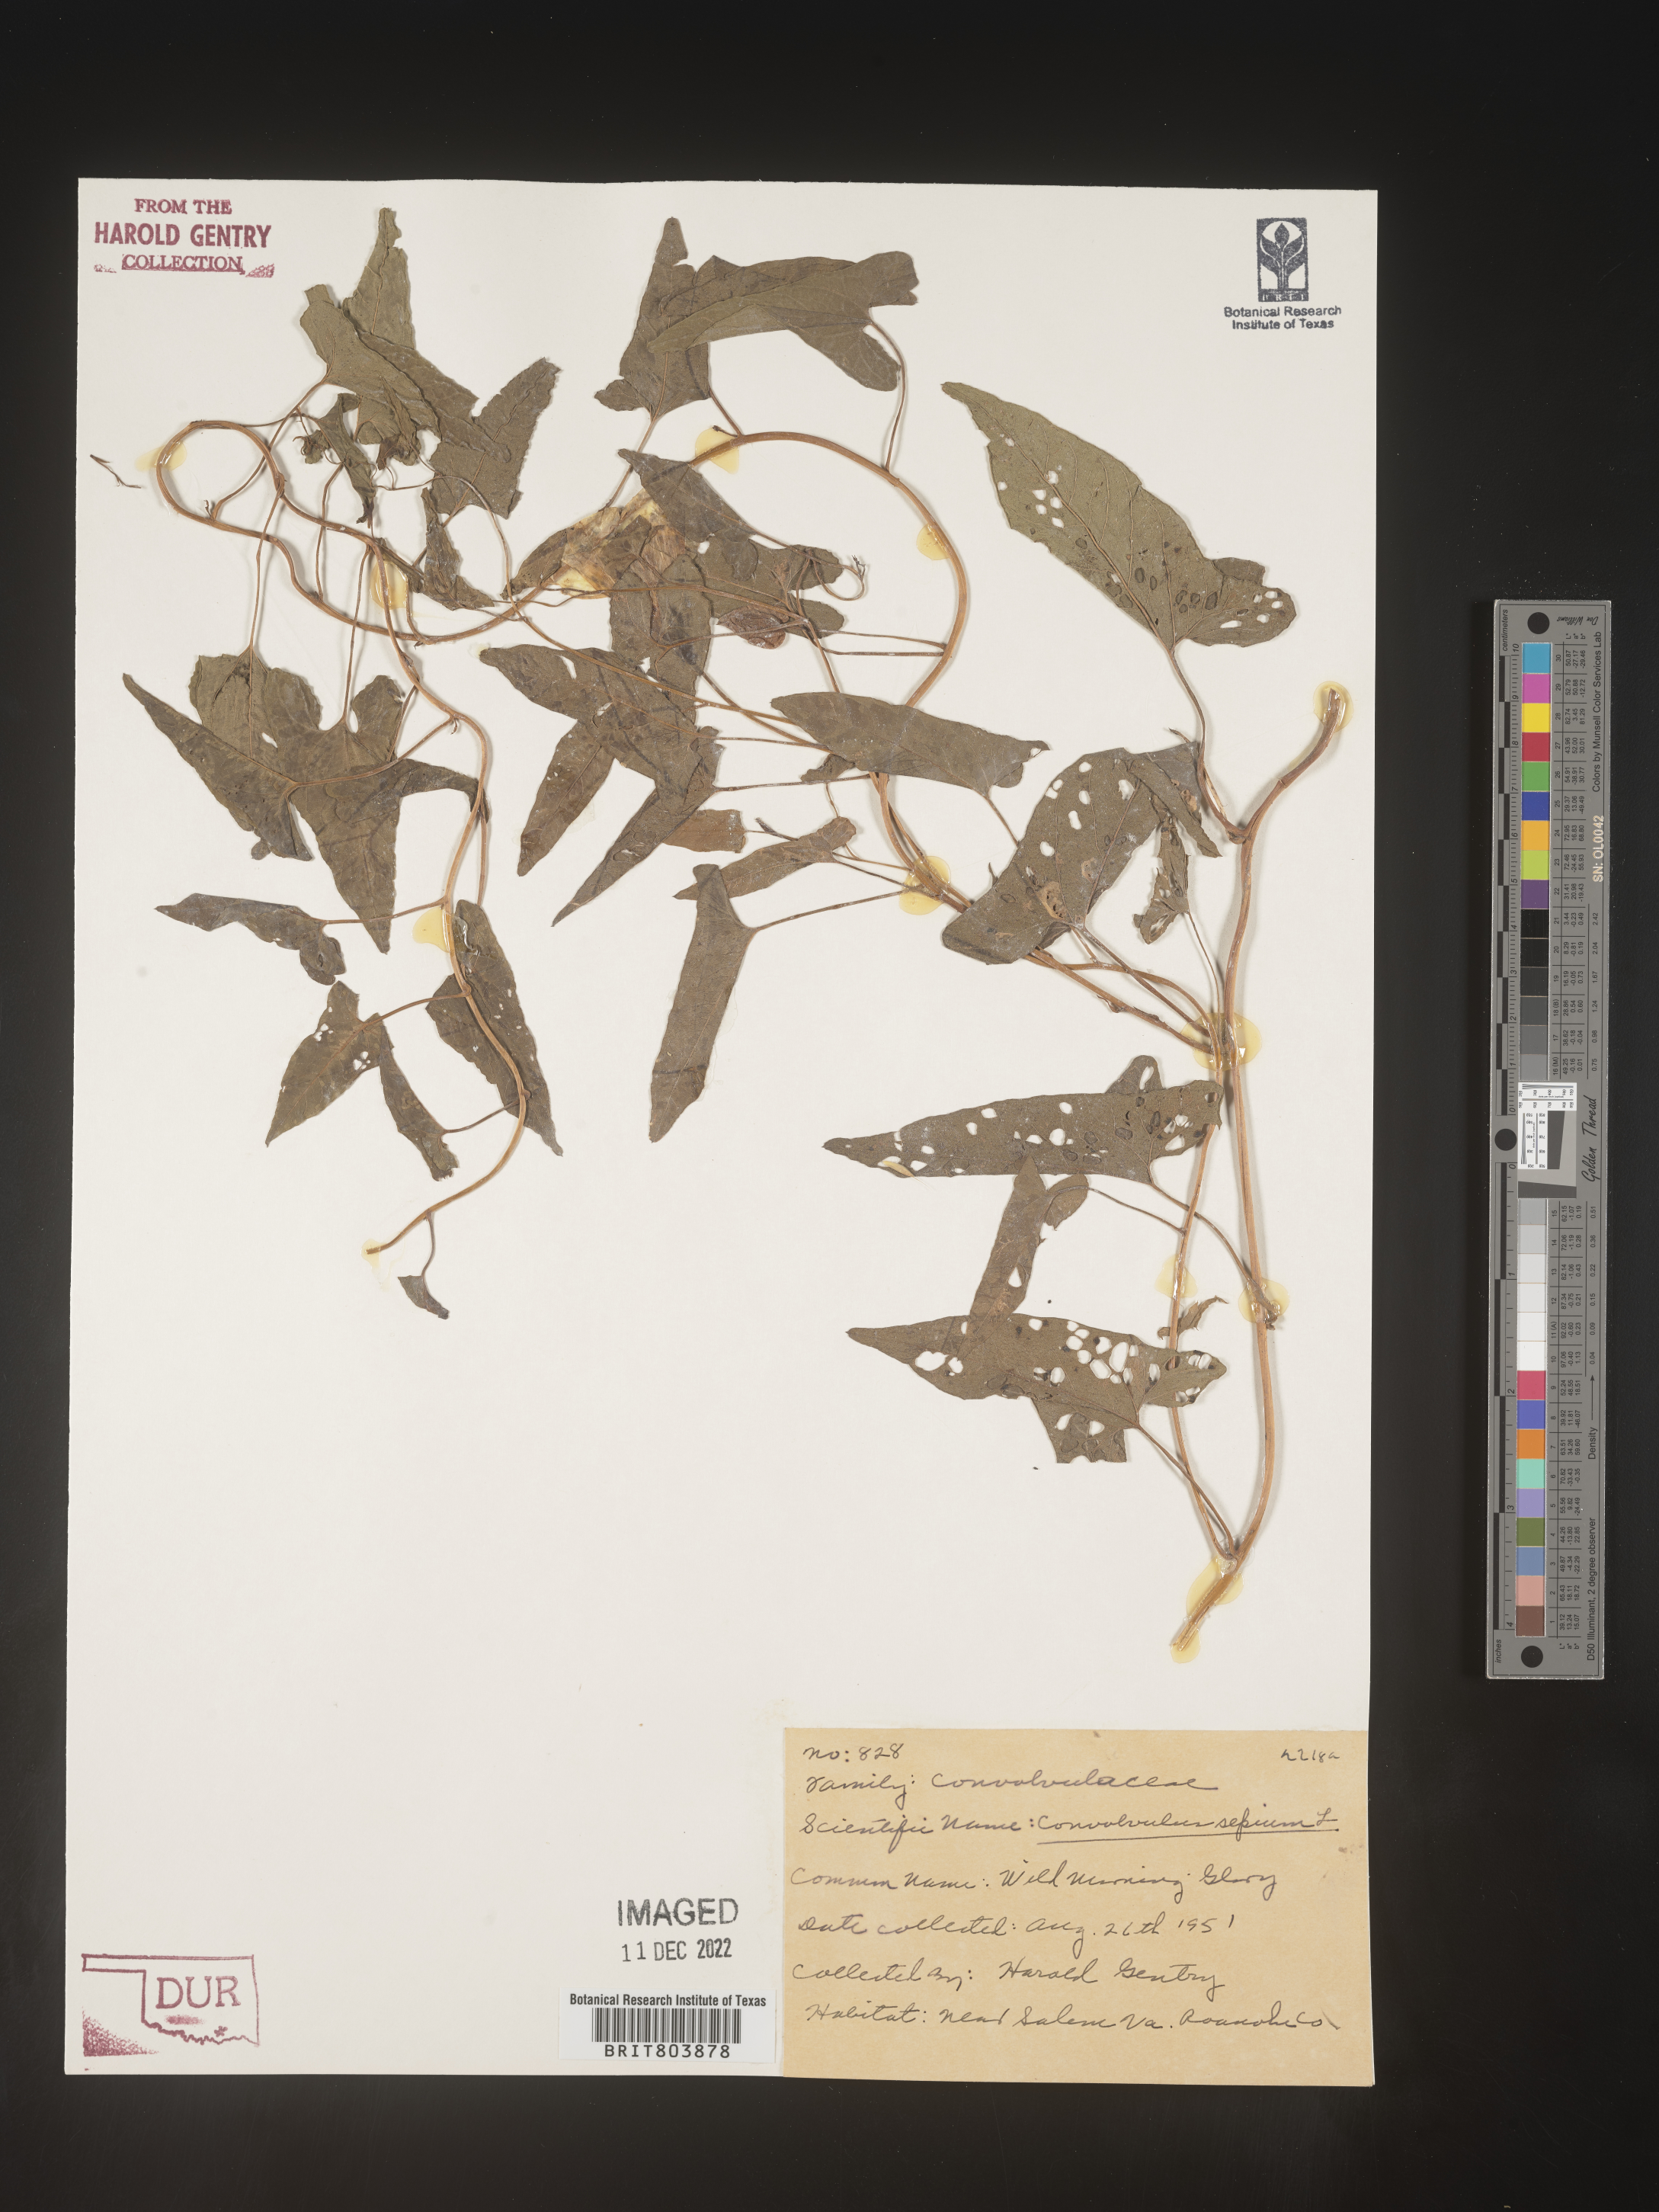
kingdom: Plantae
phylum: Tracheophyta
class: Magnoliopsida
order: Solanales
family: Convolvulaceae
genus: Calystegia
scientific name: Calystegia sepium
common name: Hedge bindweed
